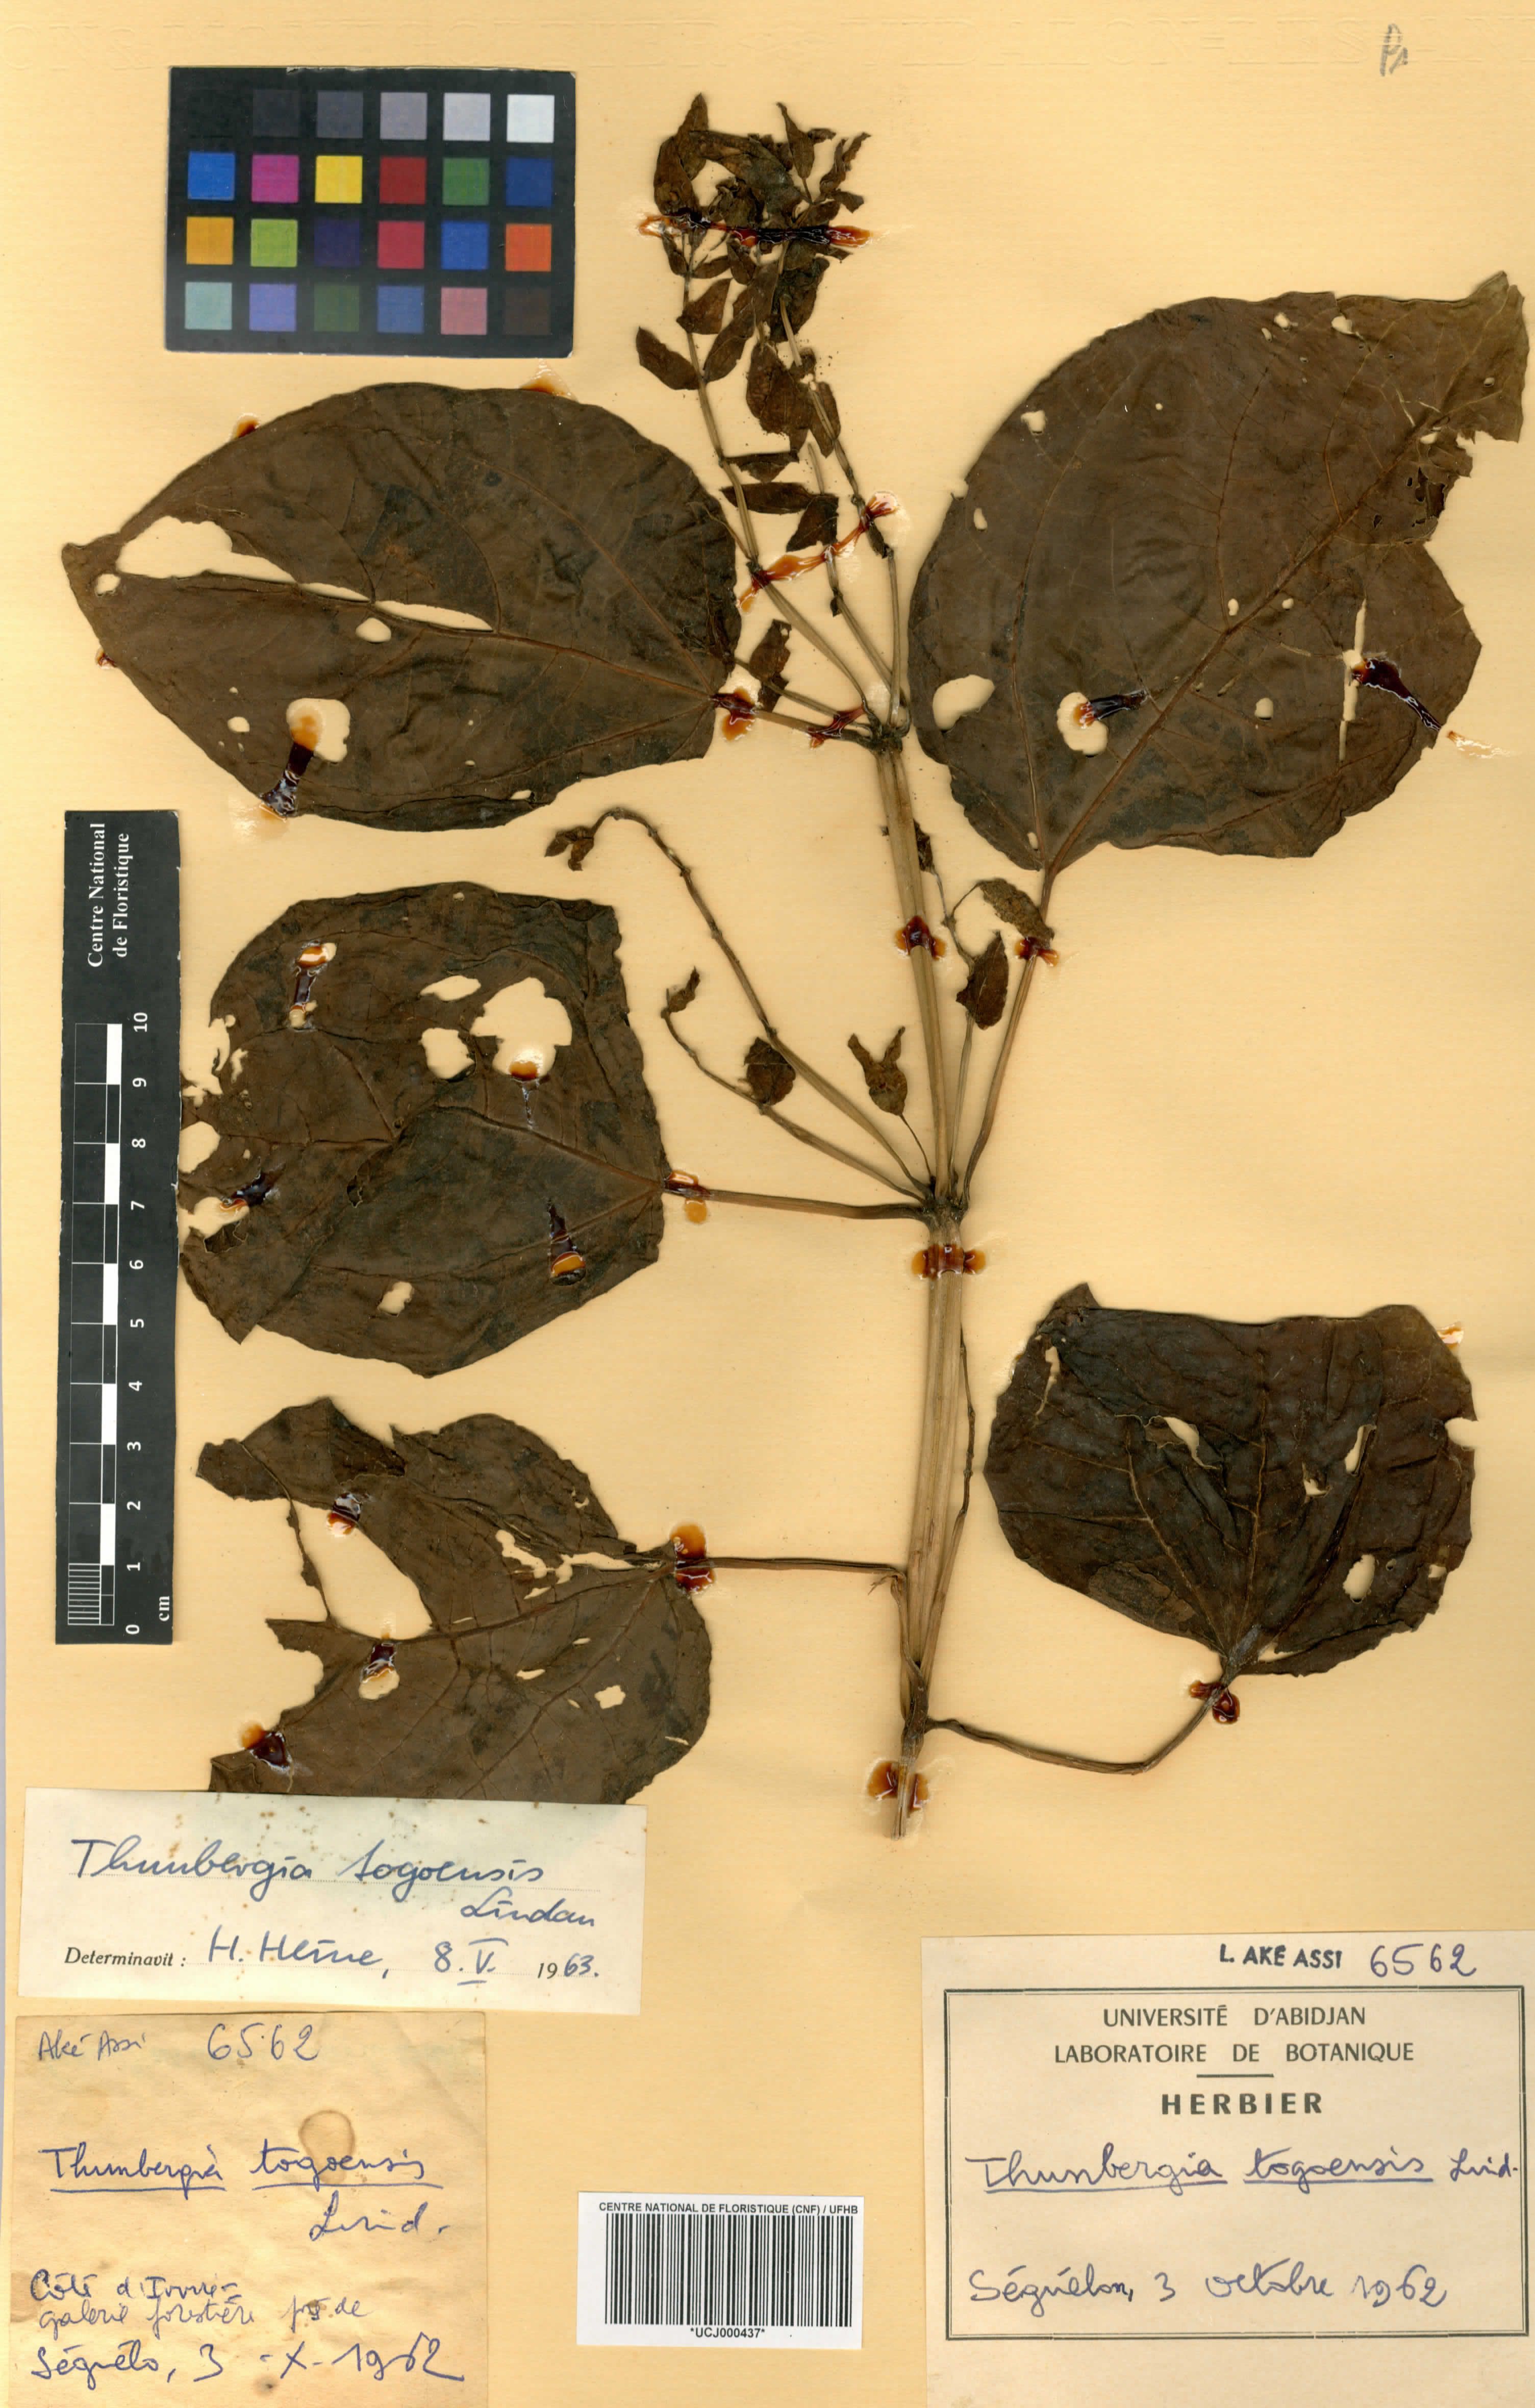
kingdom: Plantae
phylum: Tracheophyta
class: Magnoliopsida
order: Lamiales
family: Acanthaceae
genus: Thunbergia
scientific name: Thunbergia togoensis
